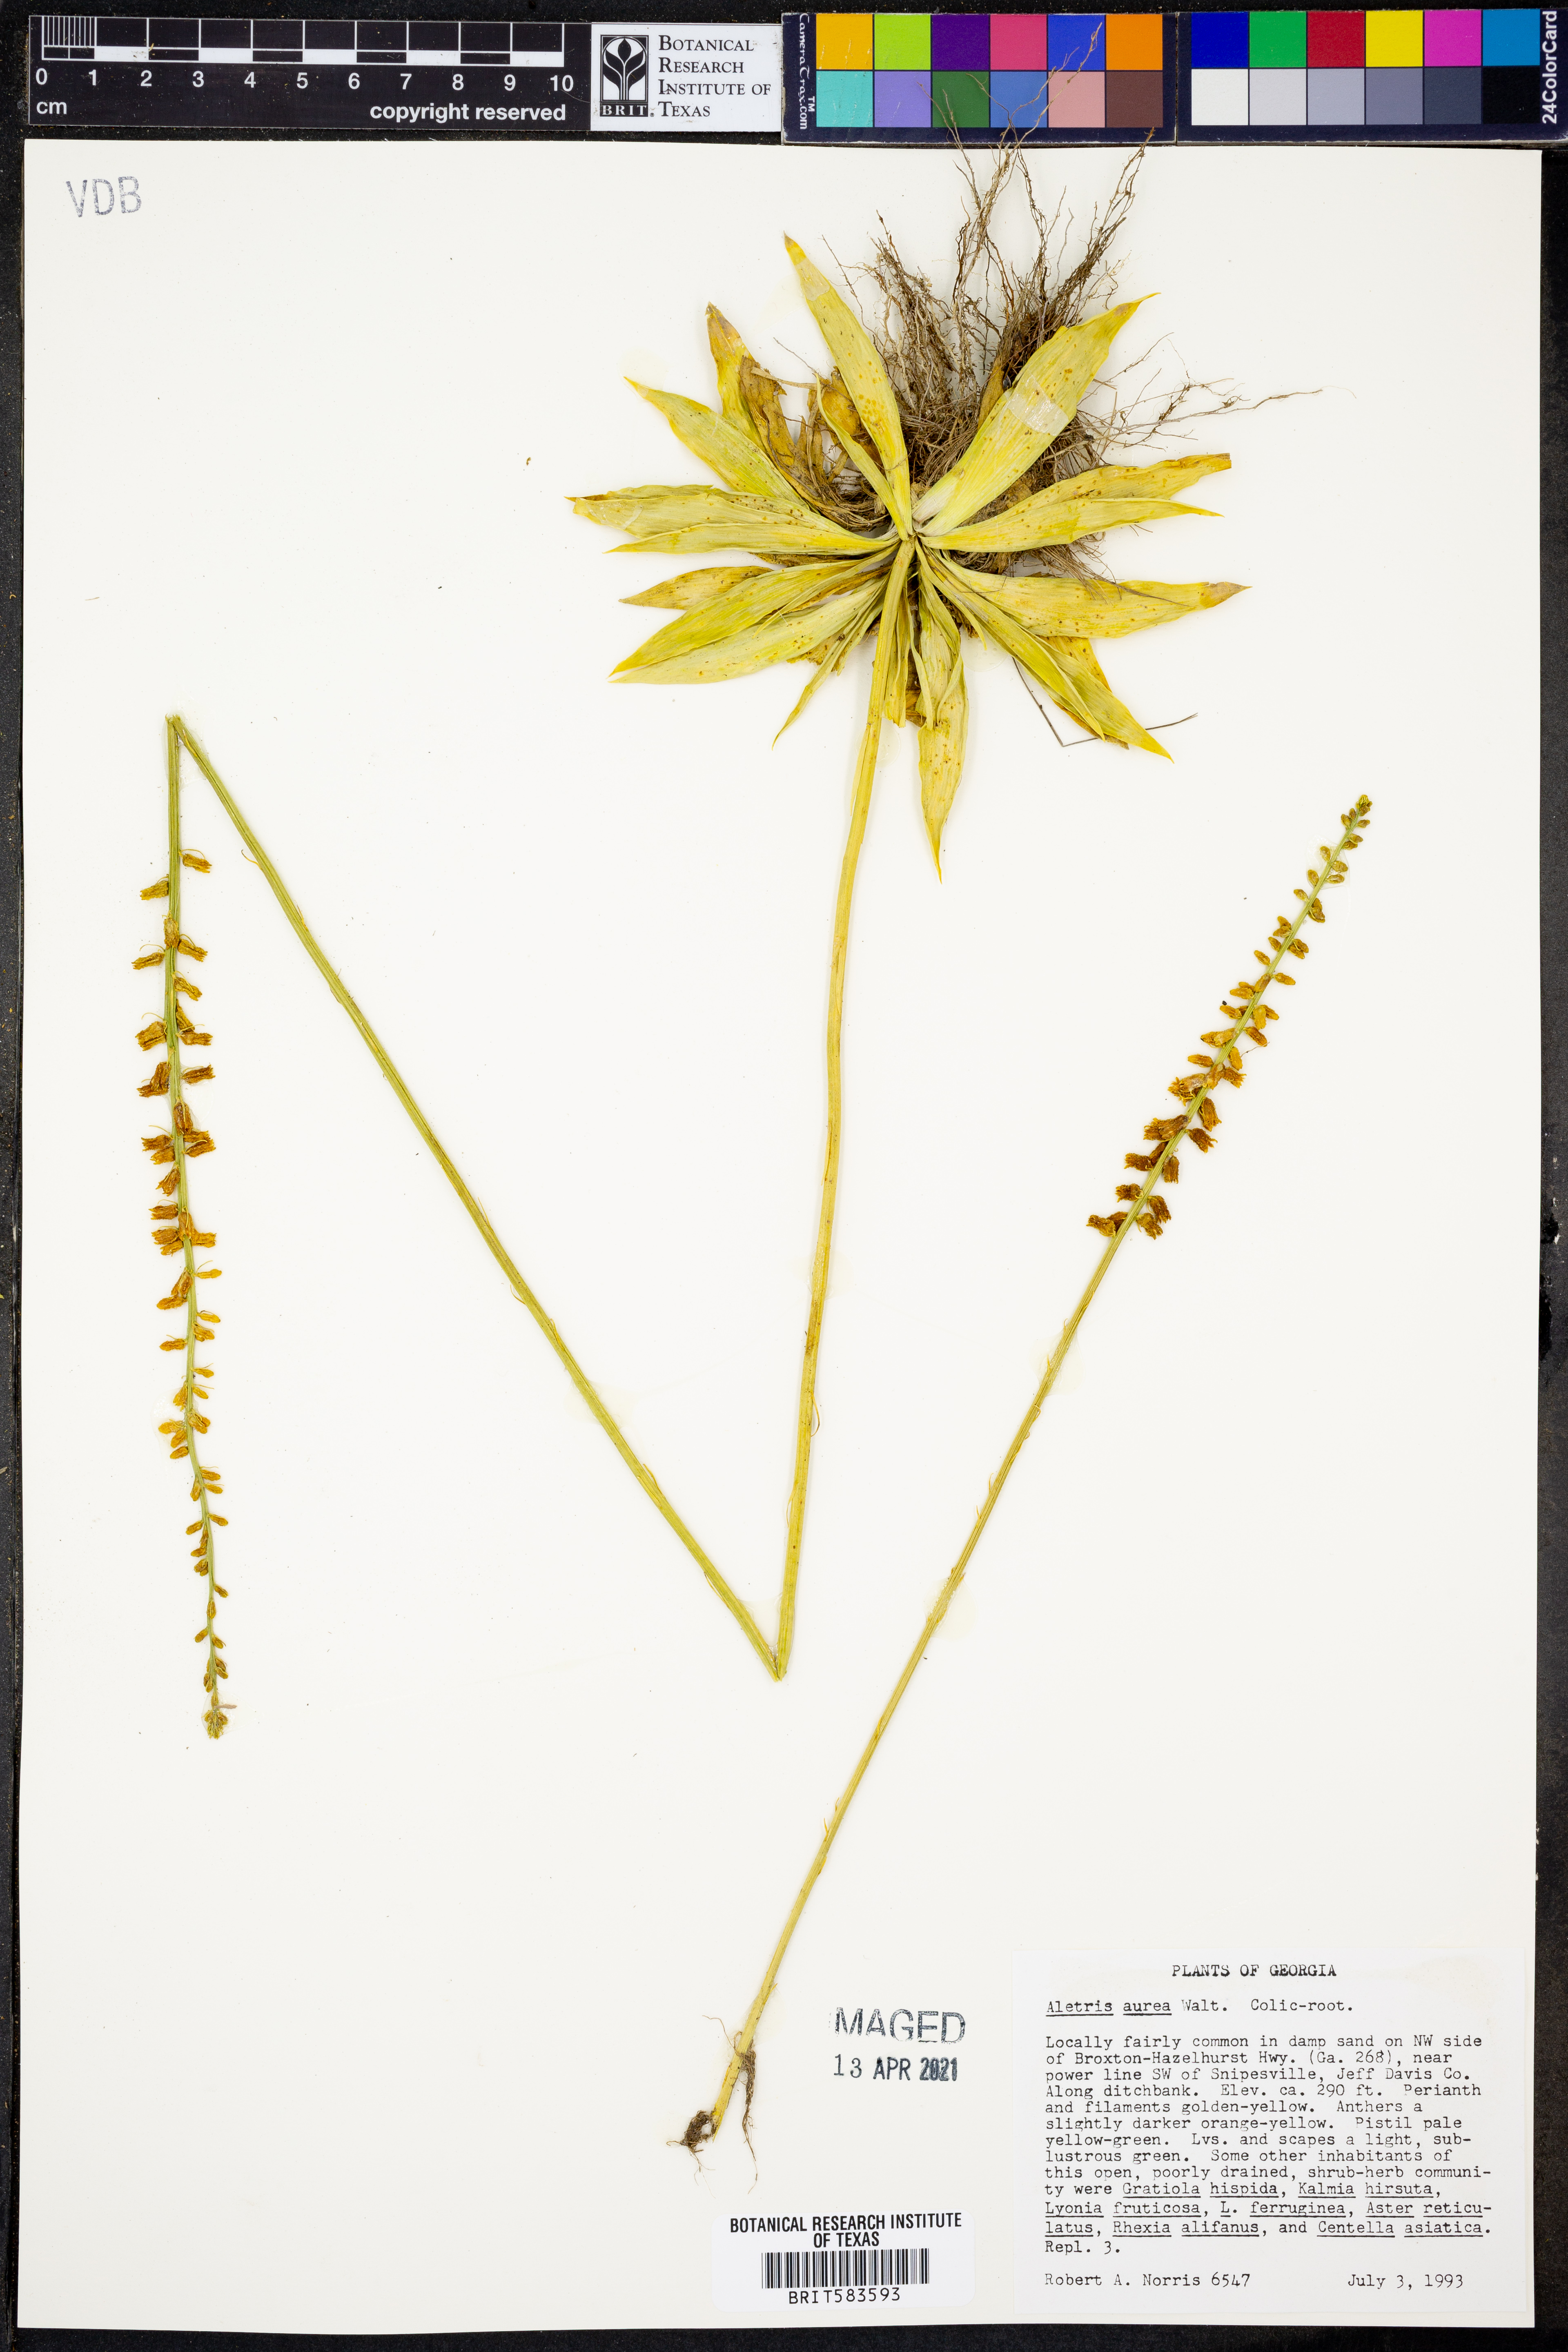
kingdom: Plantae
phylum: Tracheophyta
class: Liliopsida
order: Dioscoreales
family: Nartheciaceae
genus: Aletris
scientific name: Aletris aurea
